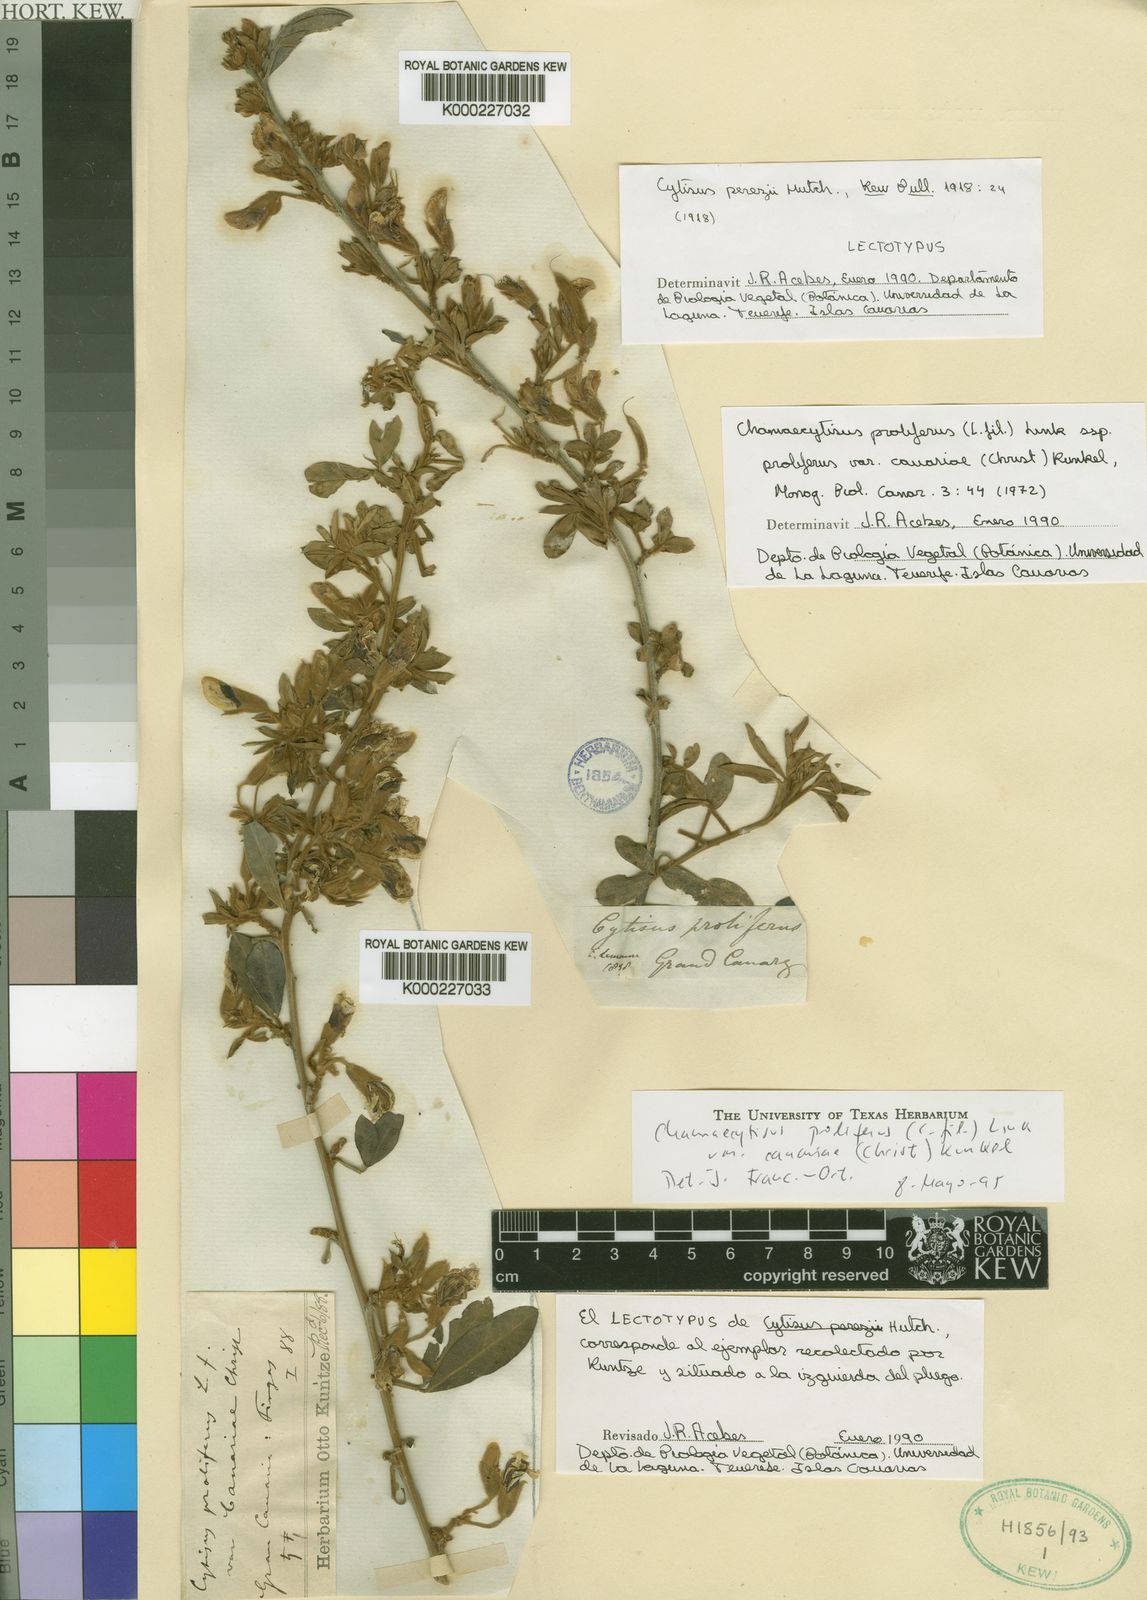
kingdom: Plantae
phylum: Tracheophyta
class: Magnoliopsida
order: Fabales
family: Fabaceae
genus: Chamaecytisus
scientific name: Chamaecytisus prolifer
